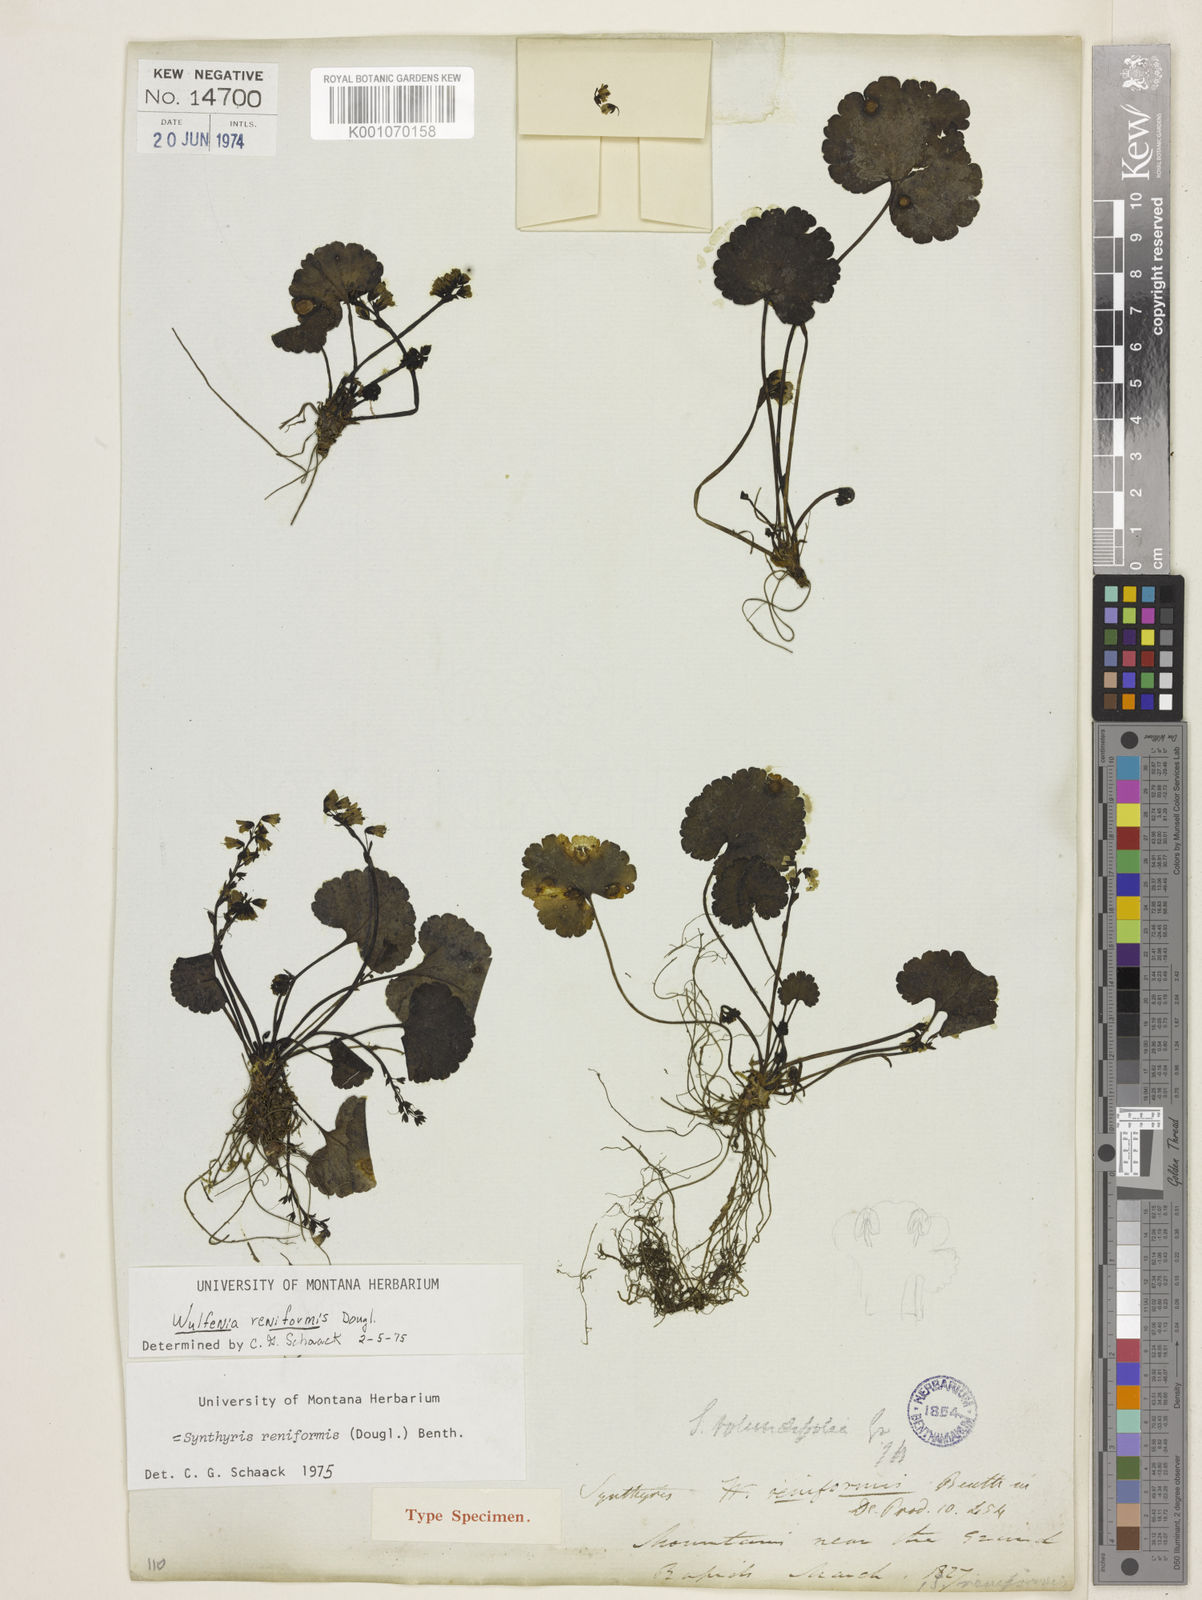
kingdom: Plantae
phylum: Tracheophyta
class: Magnoliopsida
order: Lamiales
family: Plantaginaceae
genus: Synthyris
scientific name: Synthyris reniformis
